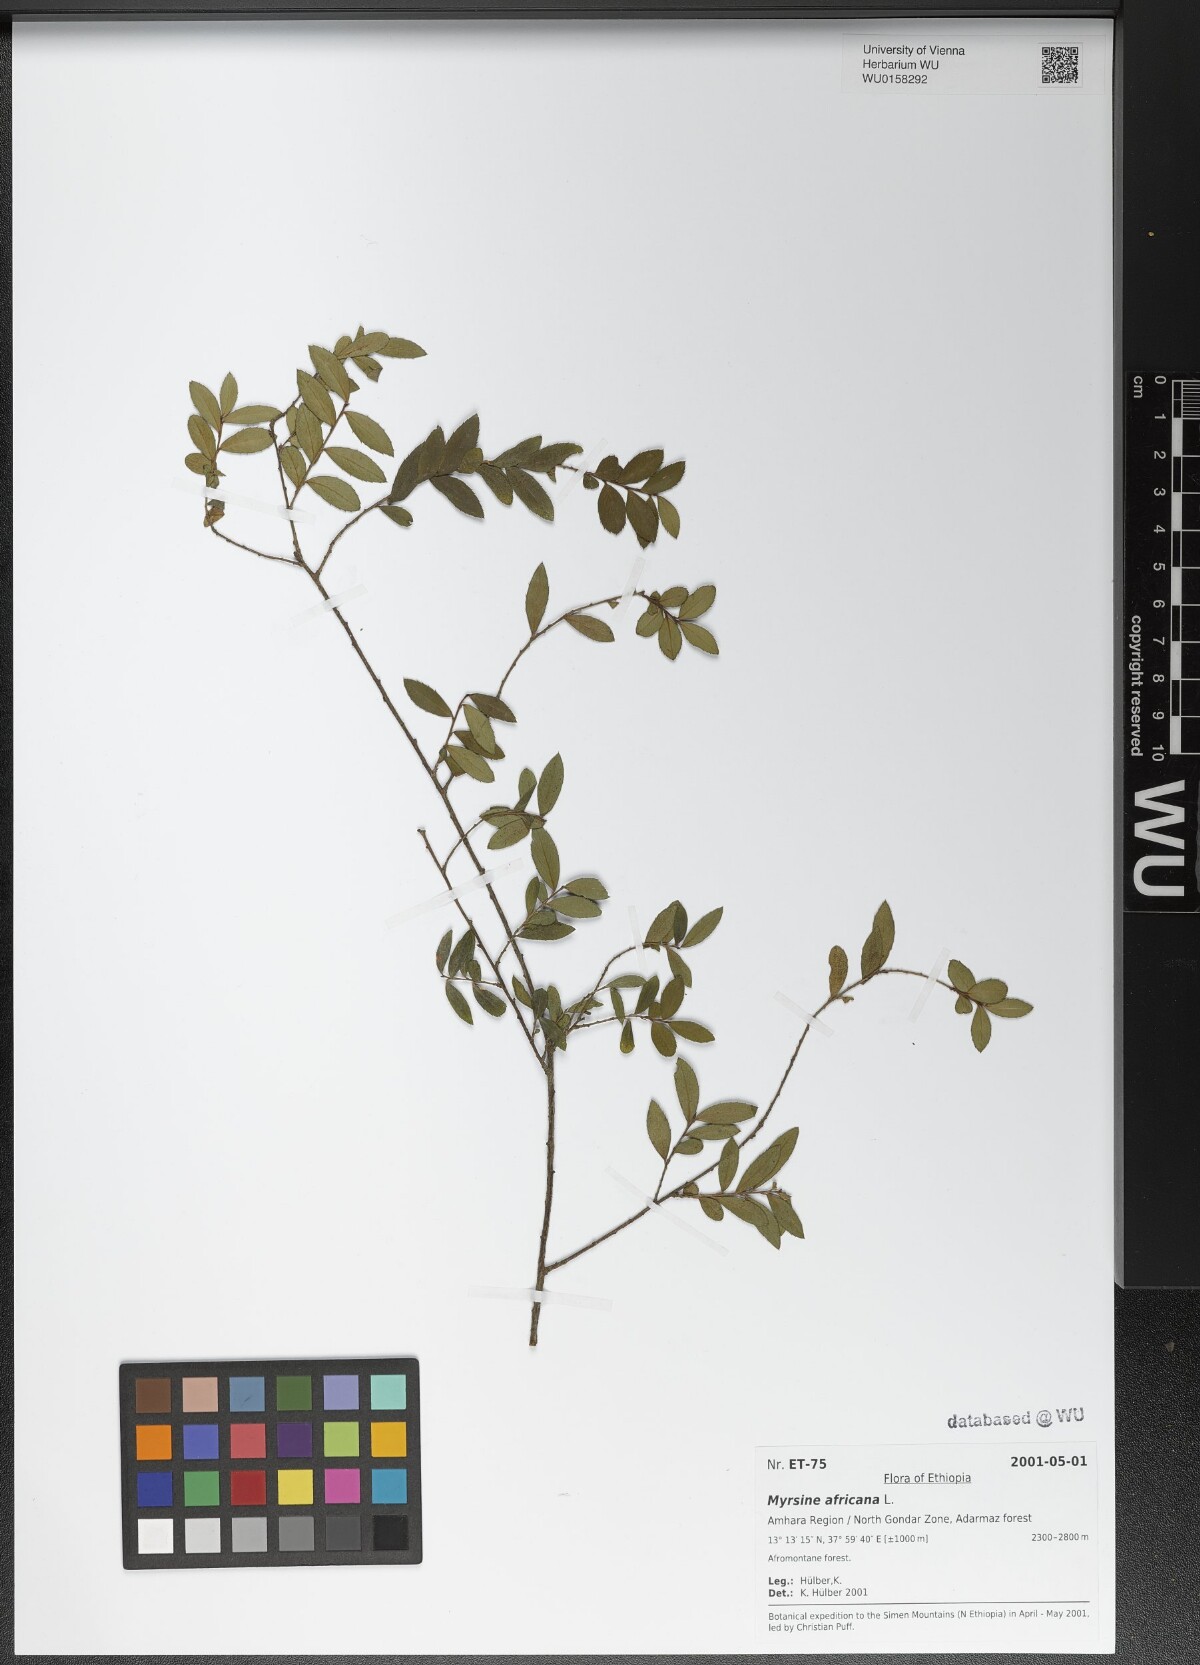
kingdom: Plantae
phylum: Tracheophyta
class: Magnoliopsida
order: Ericales
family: Primulaceae
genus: Myrsine
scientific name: Myrsine africana
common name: African-boxwood
